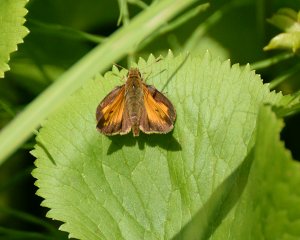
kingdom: Animalia
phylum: Arthropoda
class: Insecta
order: Lepidoptera
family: Hesperiidae
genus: Lon
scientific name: Lon hobomok
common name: Hobomok Skipper
